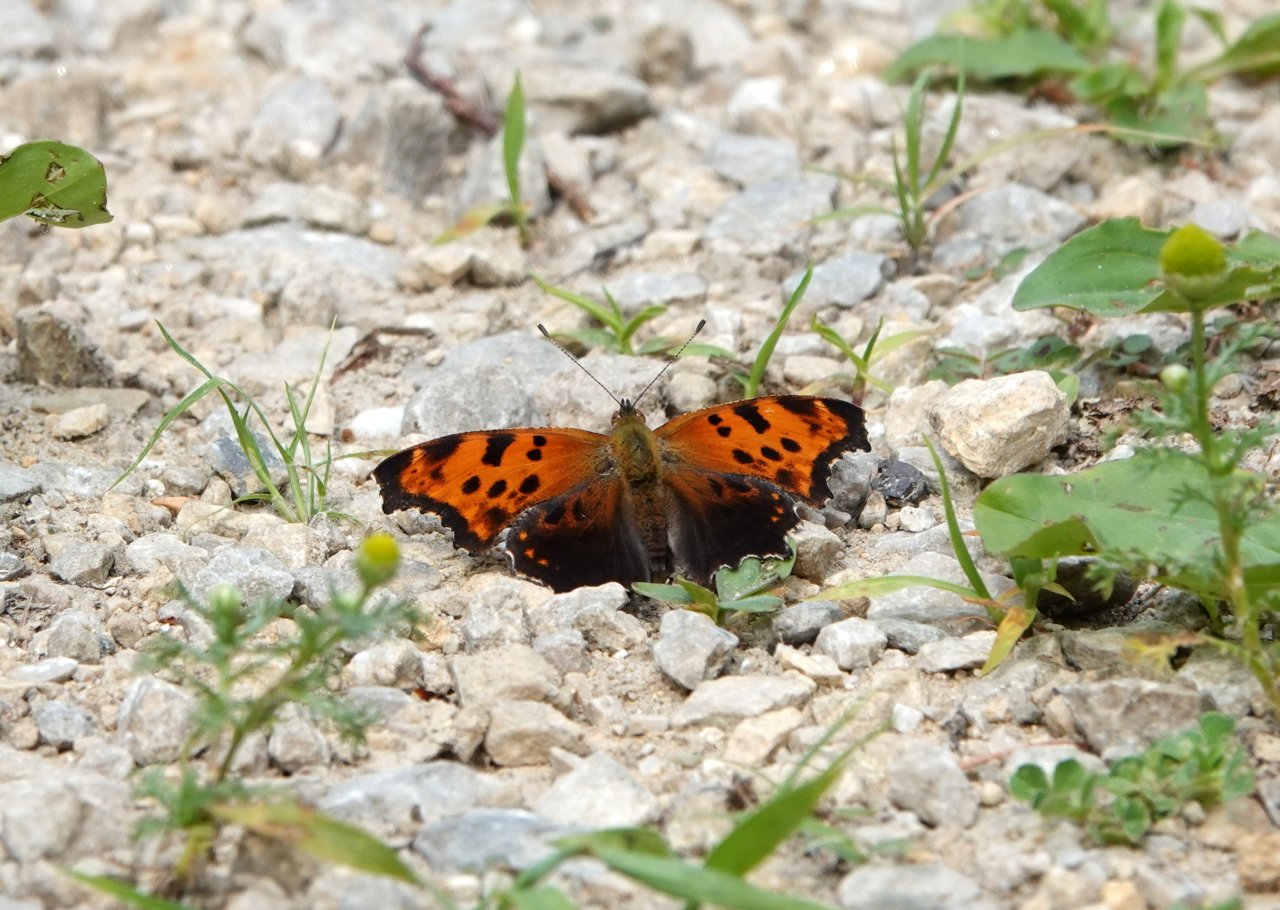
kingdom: Animalia
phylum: Arthropoda
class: Insecta
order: Lepidoptera
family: Nymphalidae
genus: Polygonia
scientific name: Polygonia comma
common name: Eastern Comma
